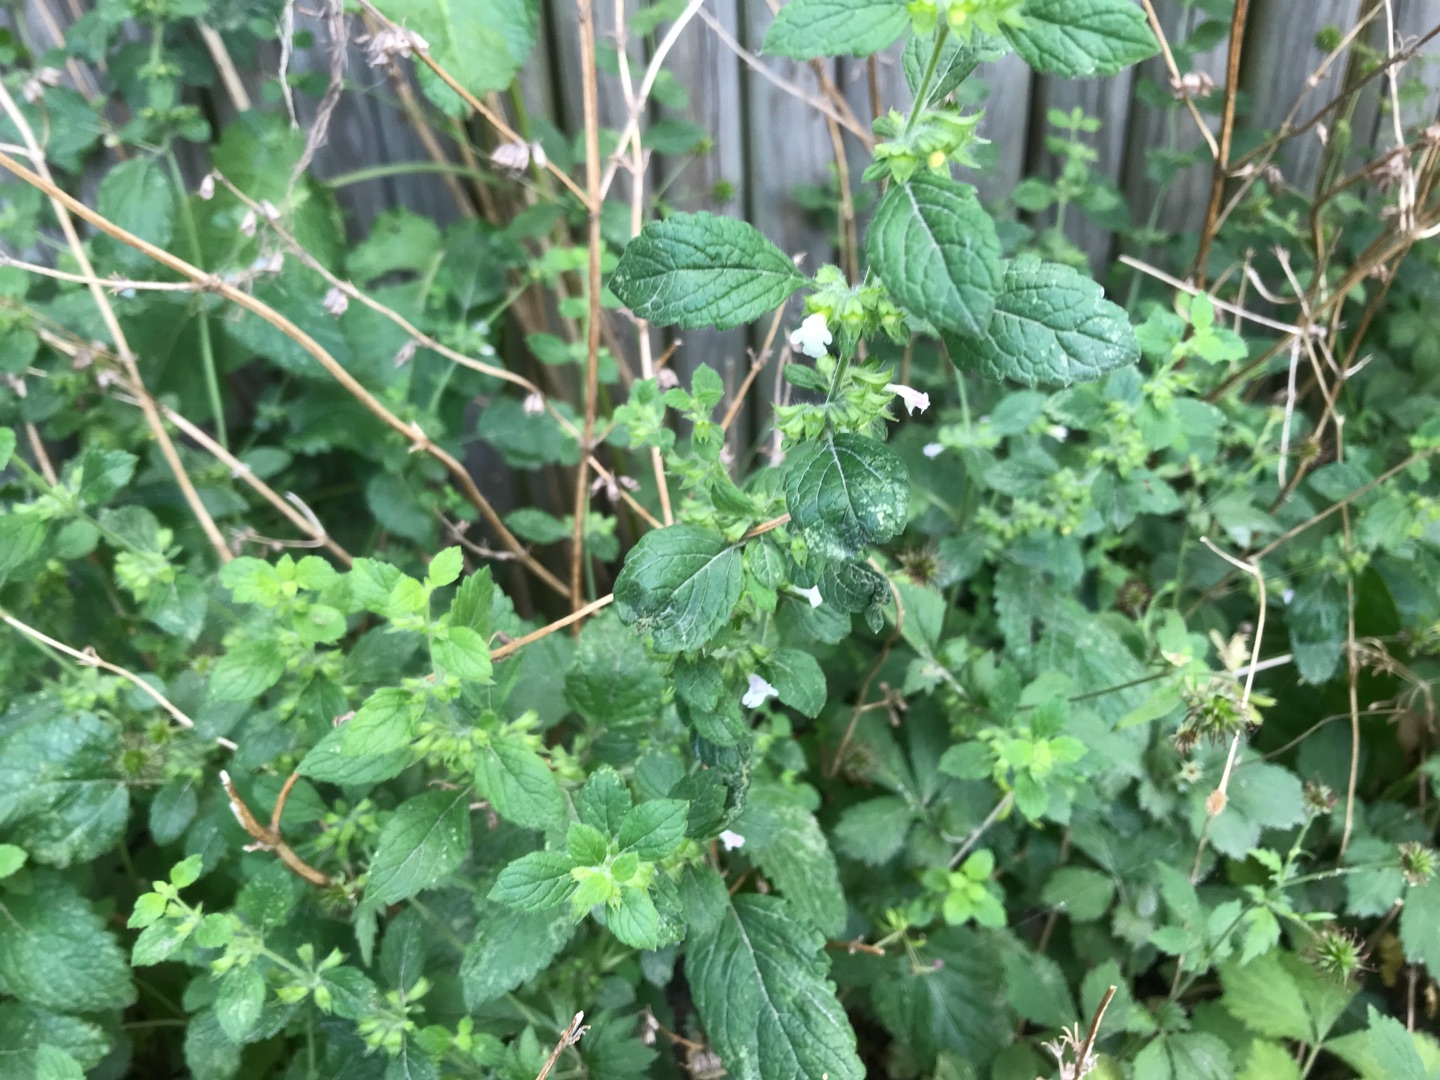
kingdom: Plantae
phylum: Tracheophyta
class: Magnoliopsida
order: Lamiales
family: Lamiaceae
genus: Melissa
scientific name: Melissa officinalis
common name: Citronmelisse
